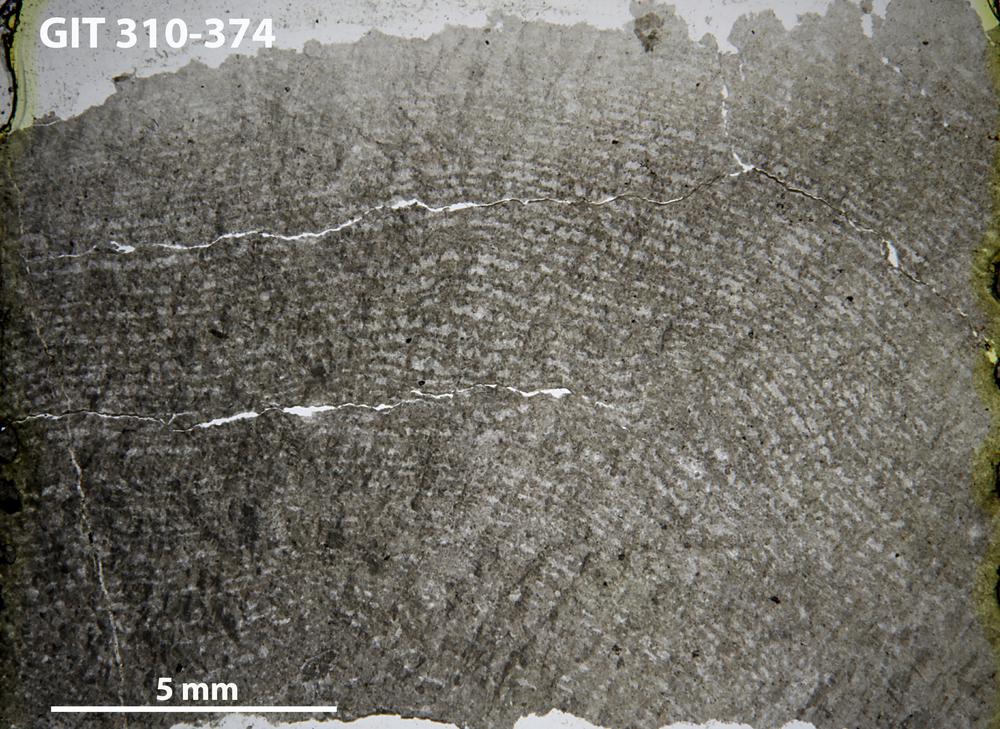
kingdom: Animalia
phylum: Porifera
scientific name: Porifera
